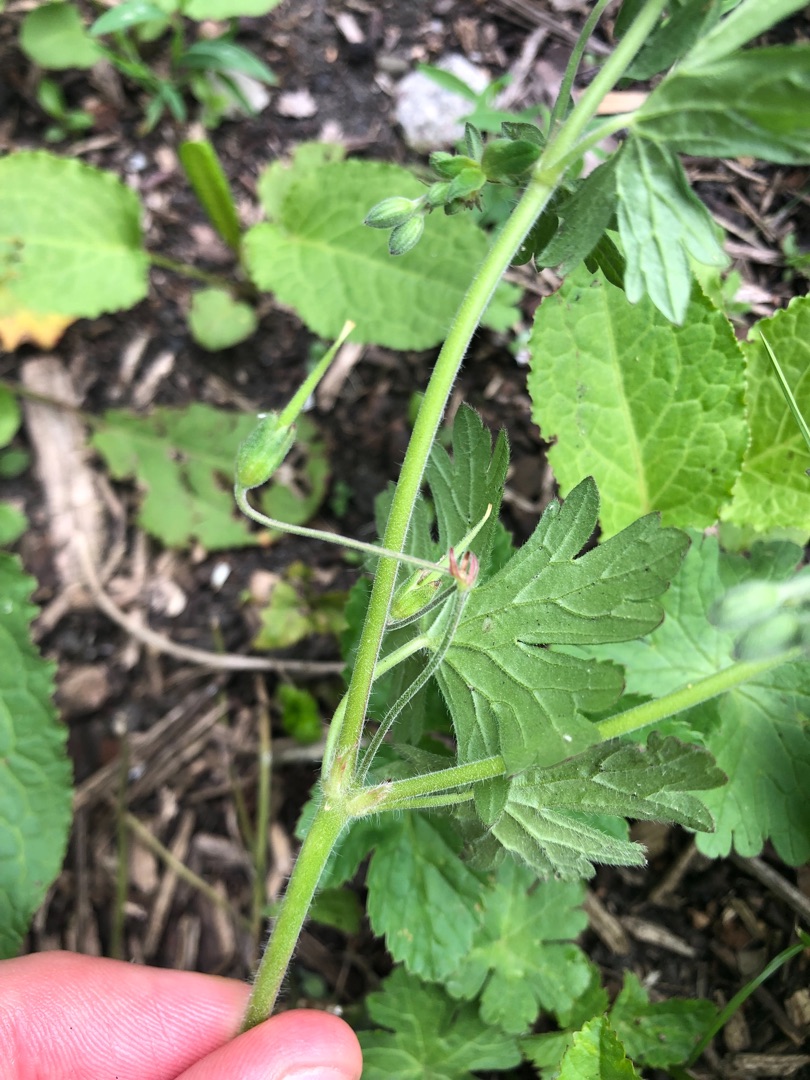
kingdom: Plantae
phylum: Tracheophyta
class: Magnoliopsida
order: Geraniales
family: Geraniaceae
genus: Geranium
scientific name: Geranium pyrenaicum
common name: Pyrenæisk storkenæb
